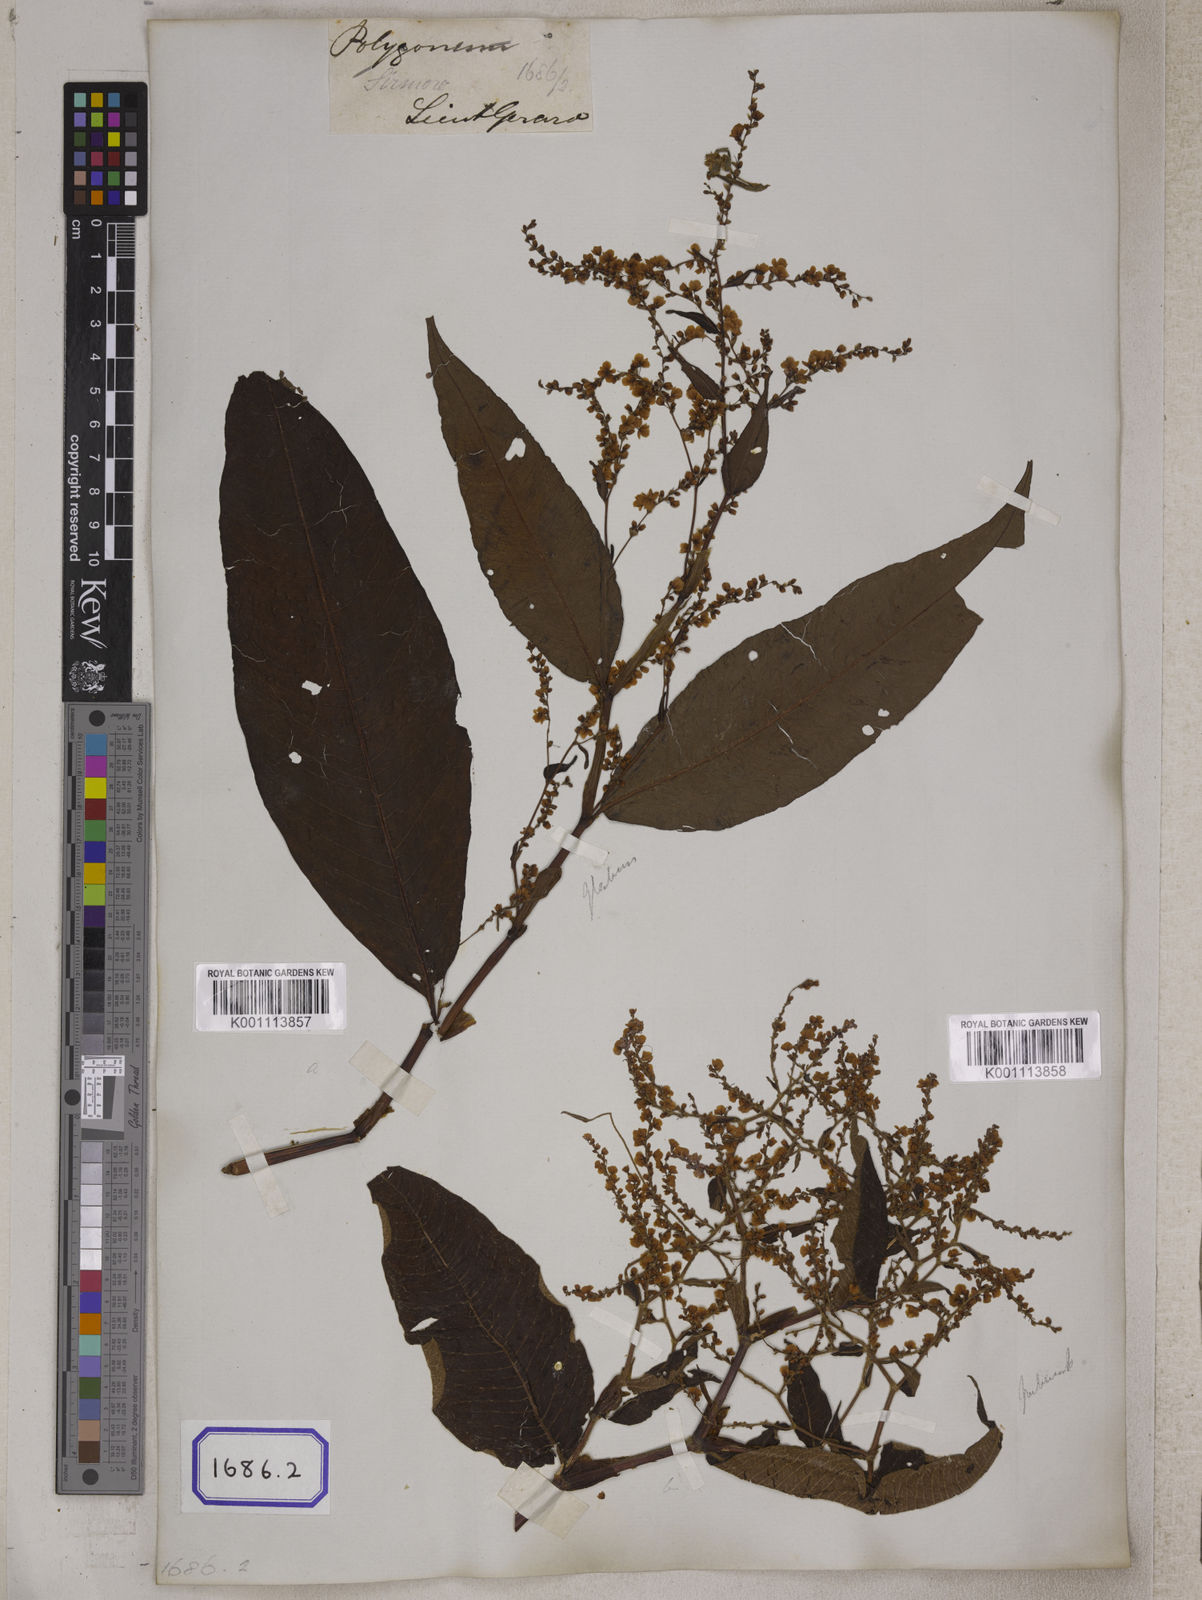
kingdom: Plantae
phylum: Tracheophyta
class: Magnoliopsida
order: Caryophyllales
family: Polygonaceae
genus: Polygonum
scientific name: Polygonum
